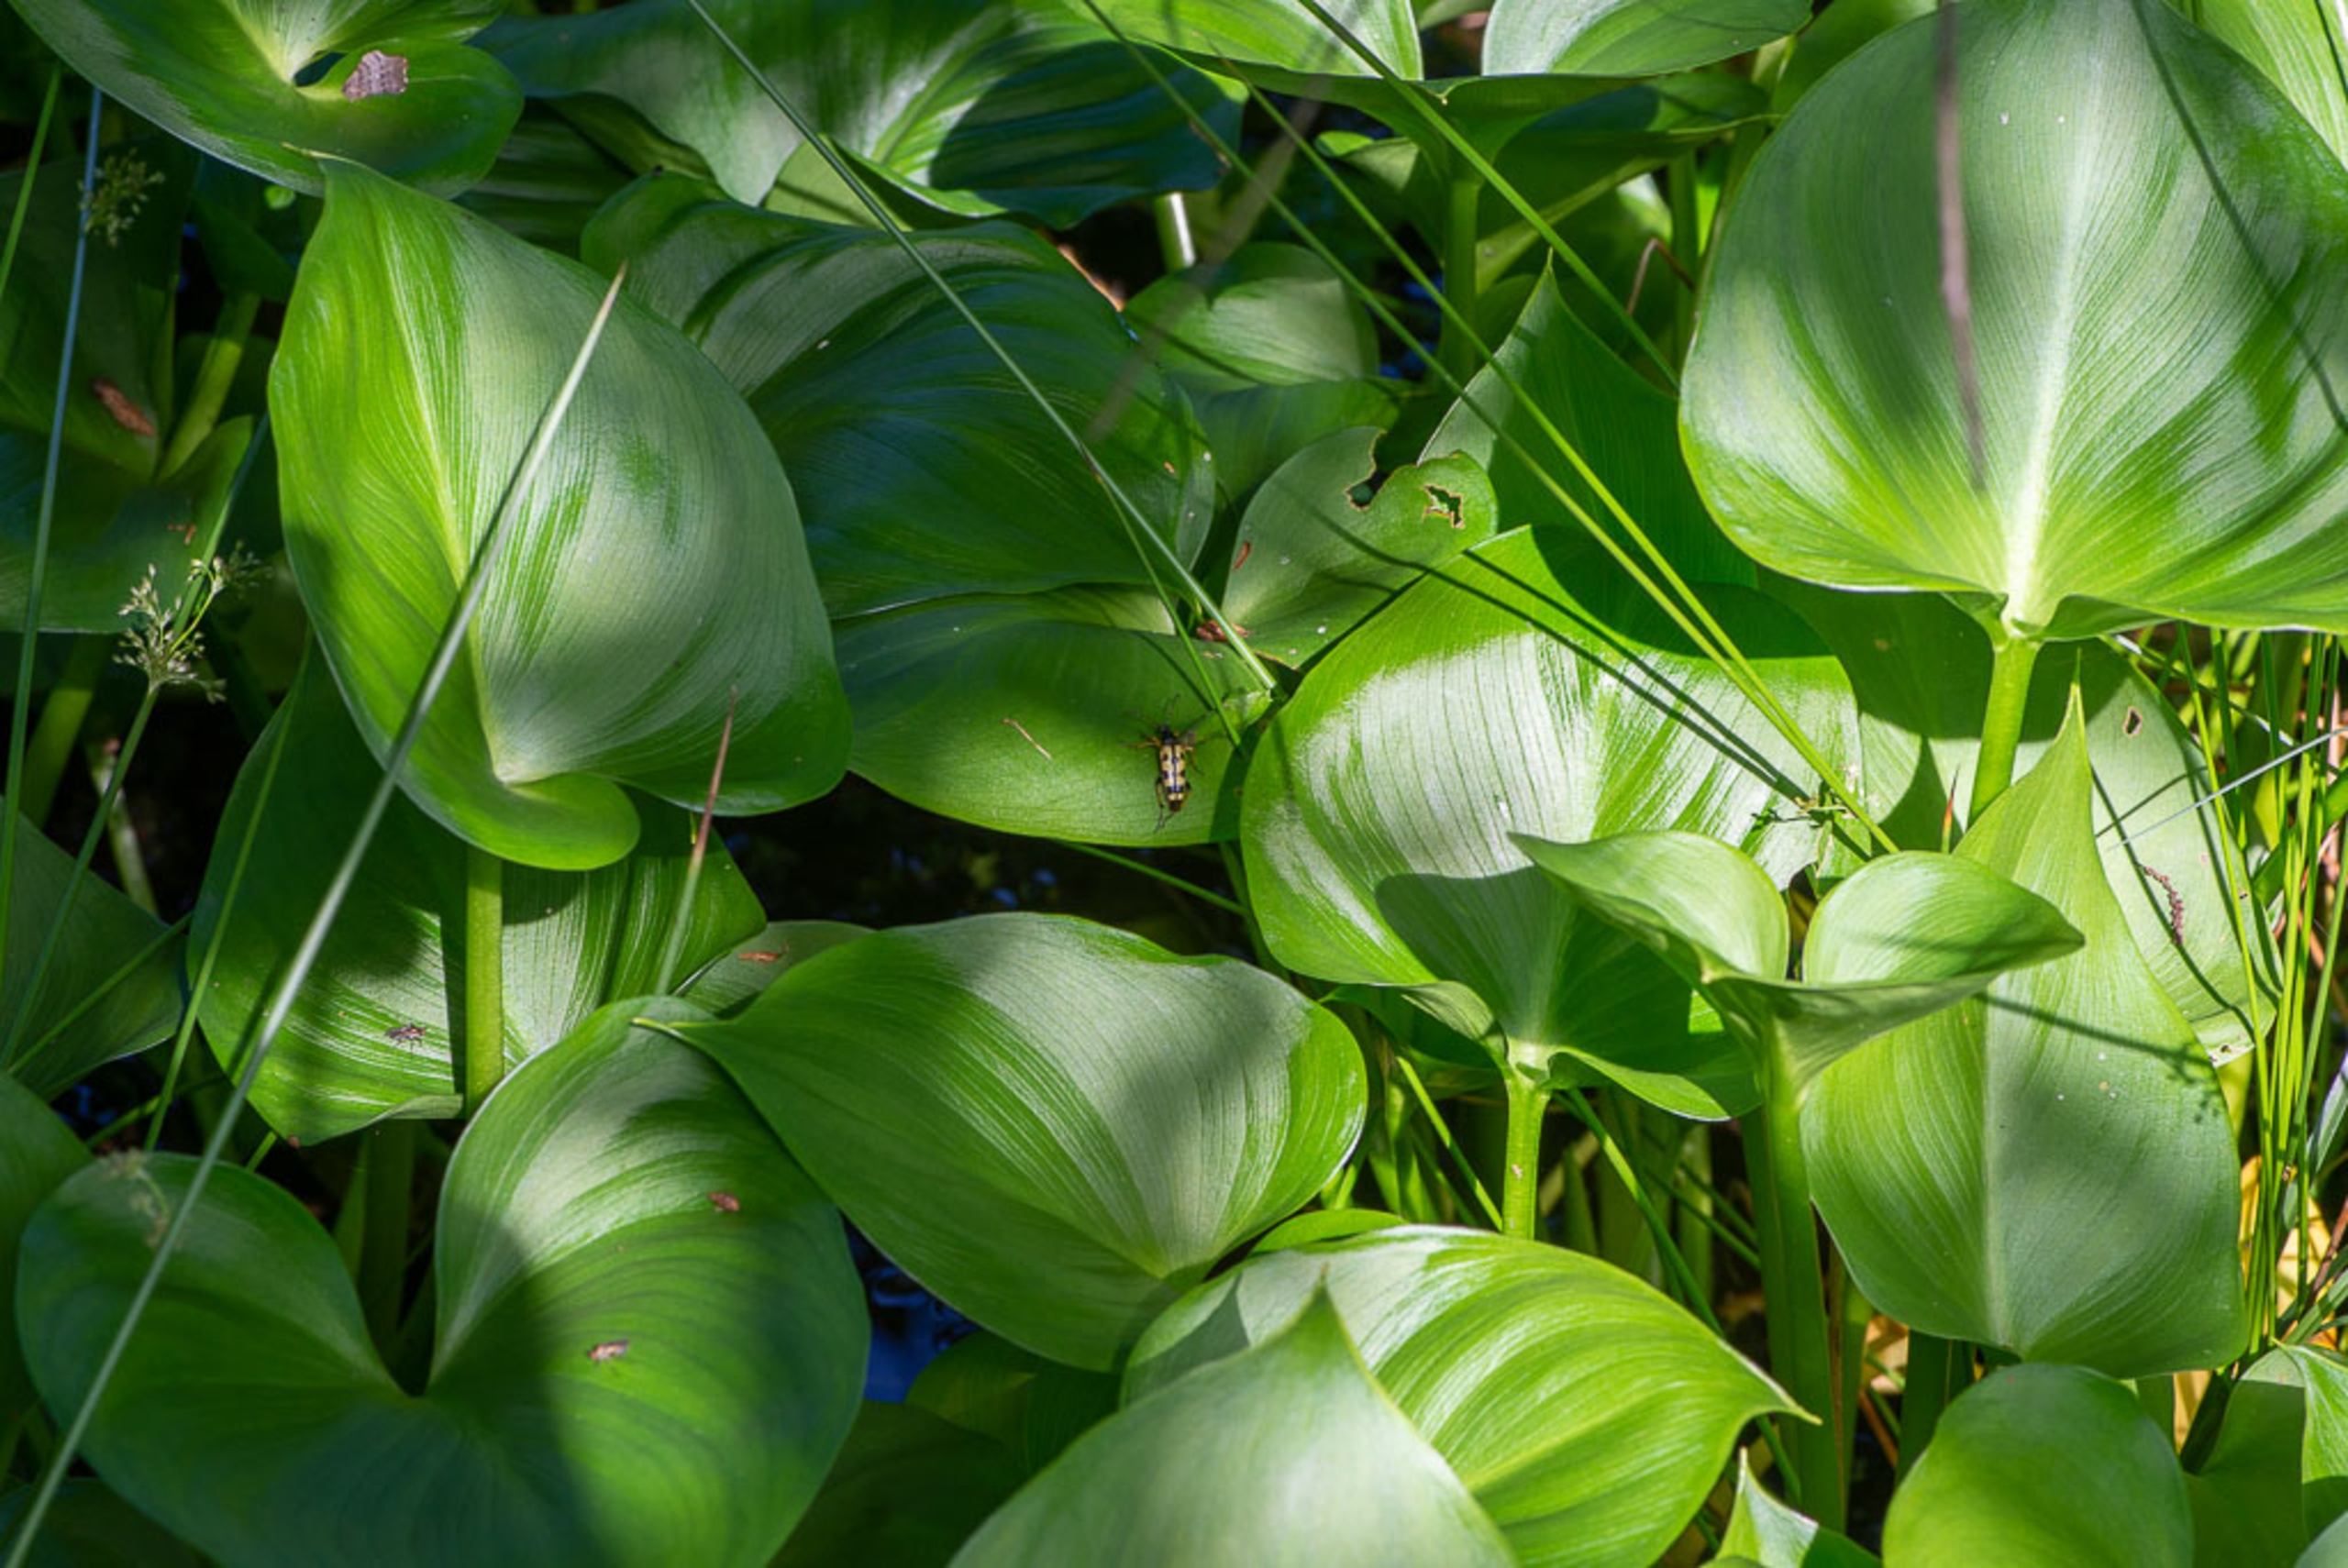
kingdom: Plantae
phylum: Tracheophyta
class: Liliopsida
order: Alismatales
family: Araceae
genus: Calla
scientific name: Calla palustris
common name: Kærmysse
